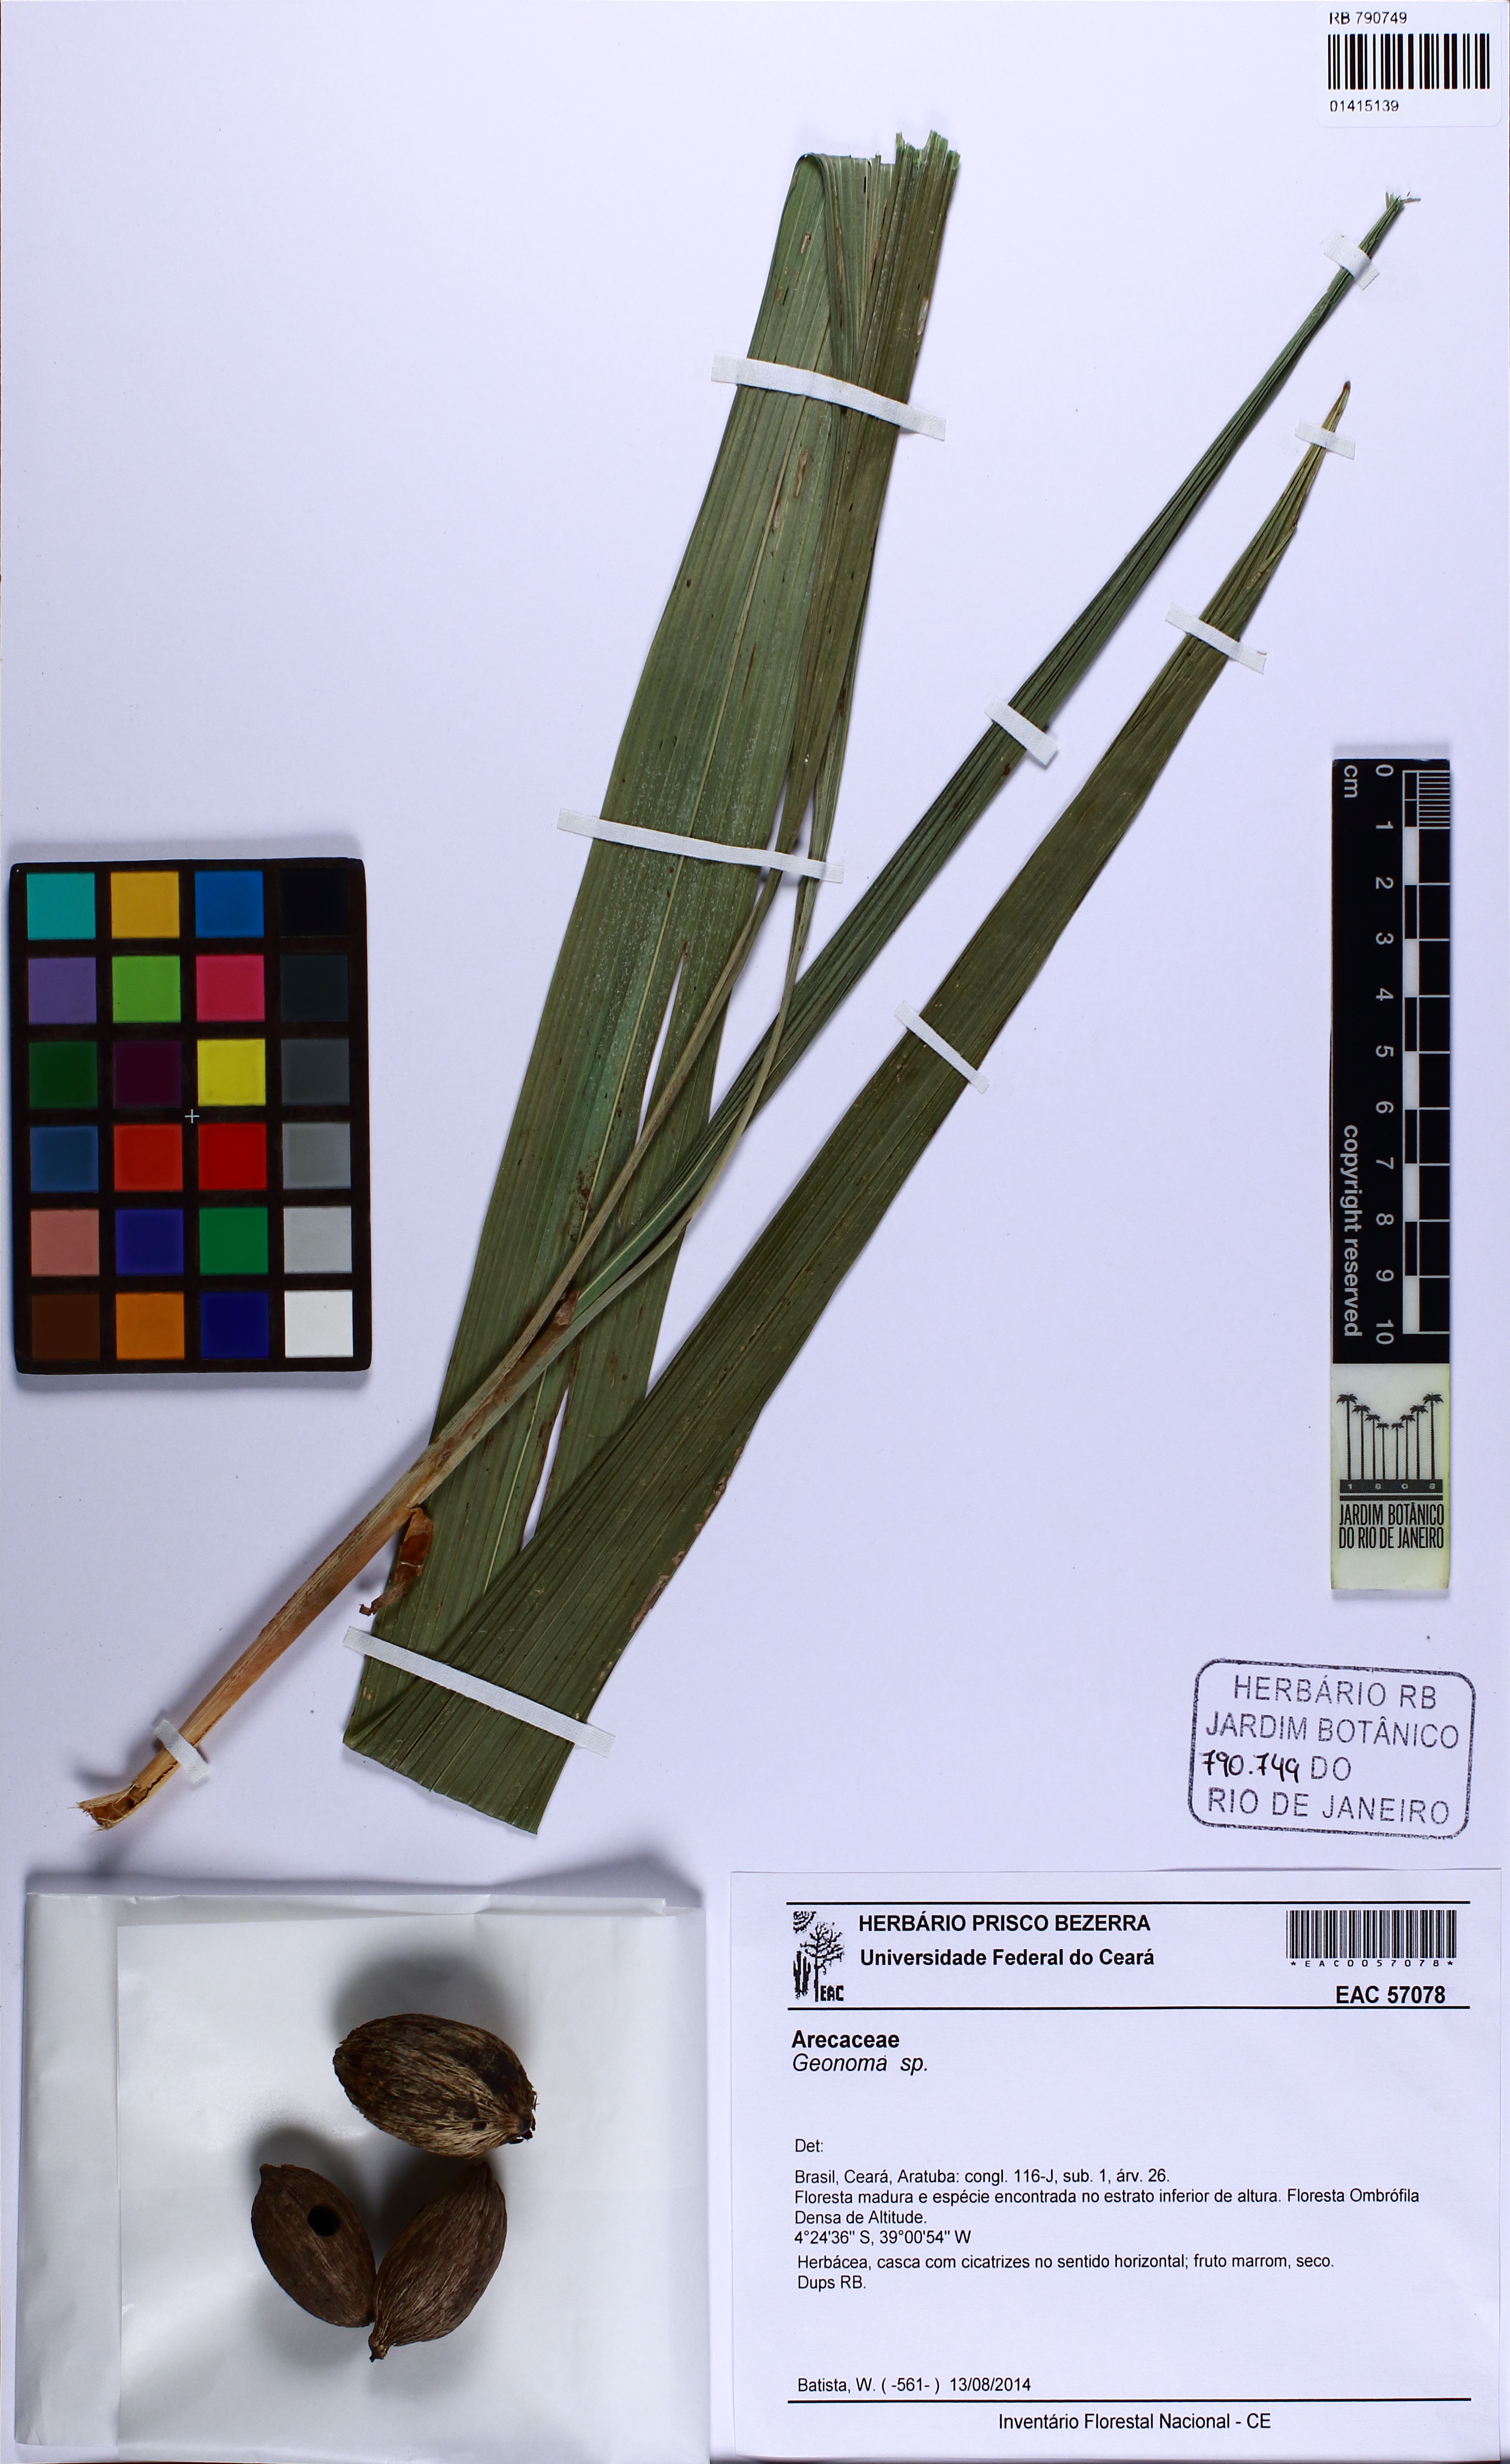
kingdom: Plantae
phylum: Tracheophyta
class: Liliopsida
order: Arecales
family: Arecaceae
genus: Geonoma
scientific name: Geonoma
